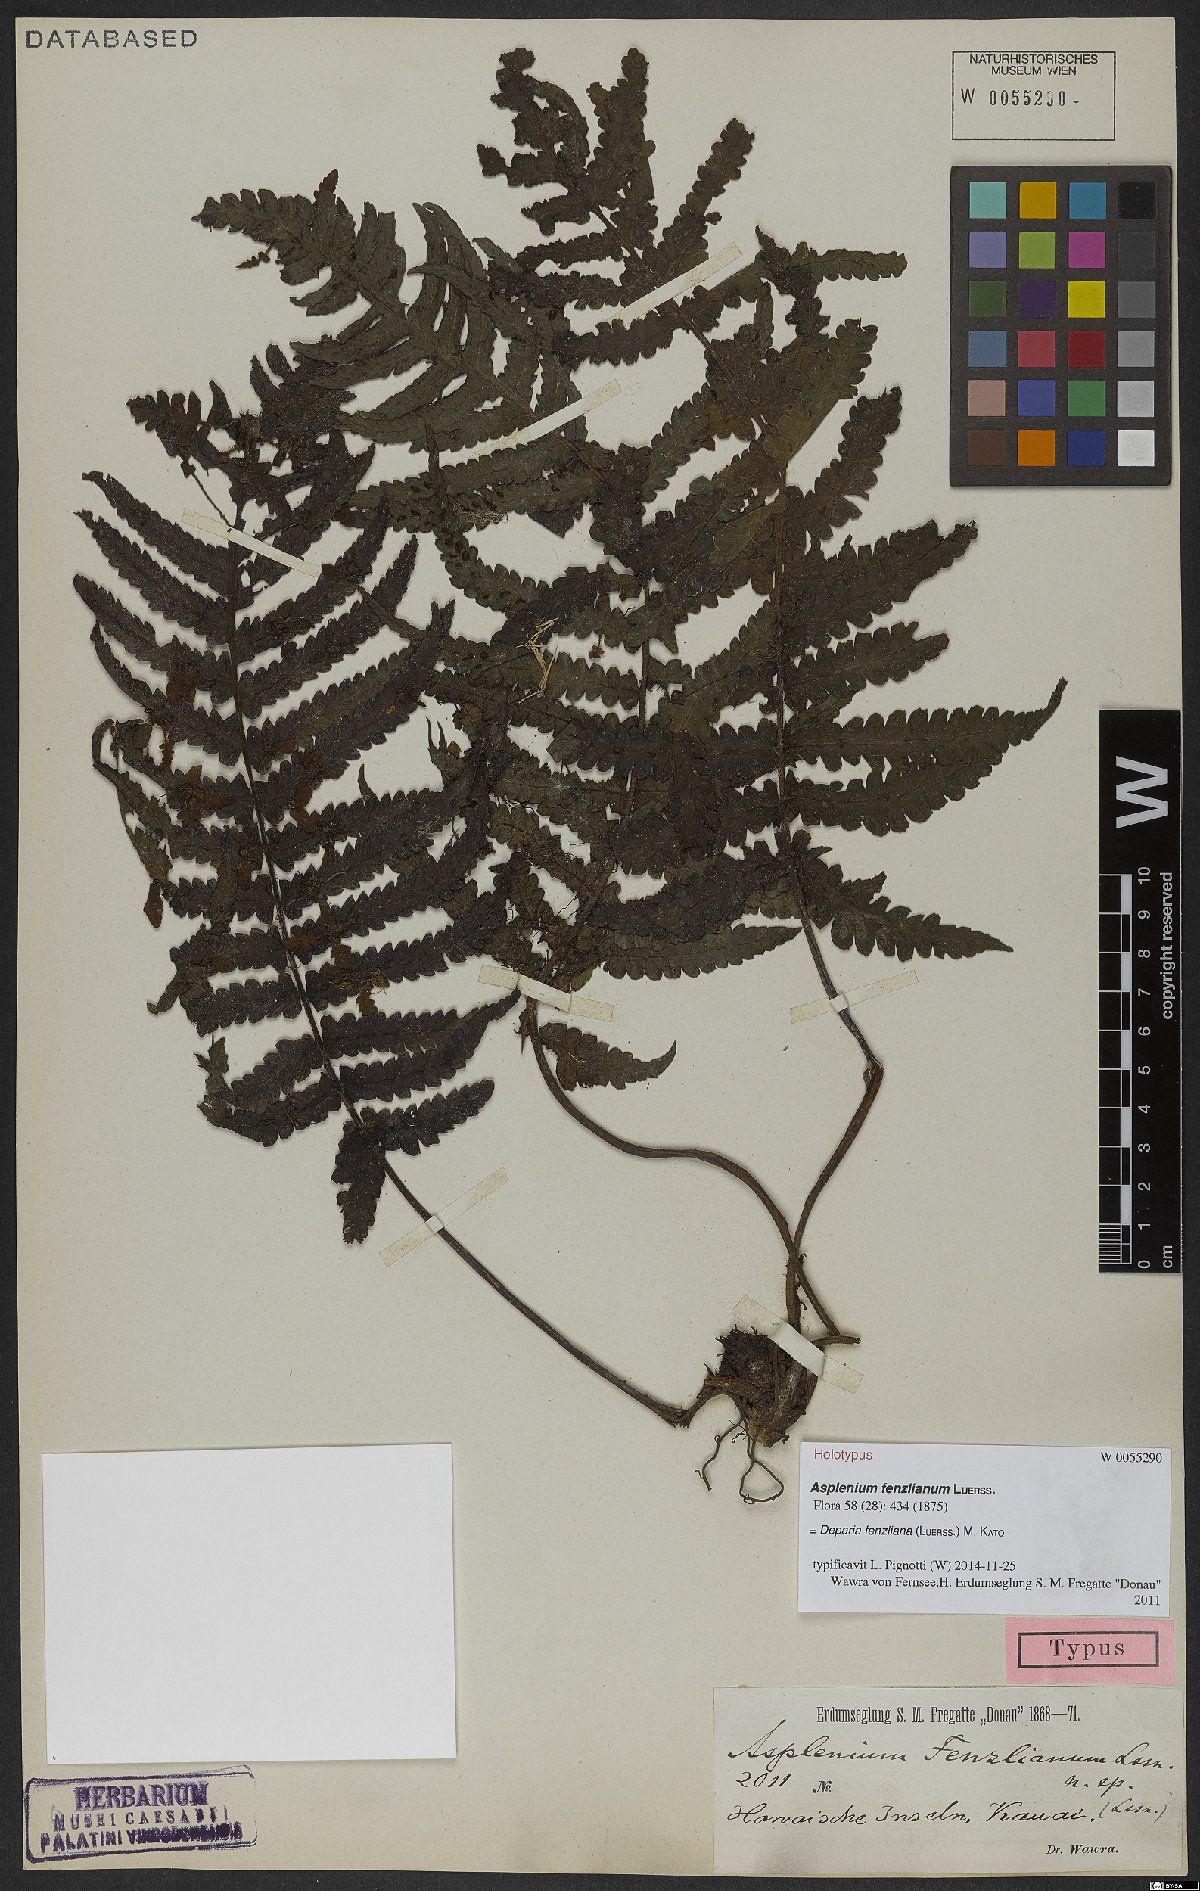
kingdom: Plantae
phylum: Tracheophyta
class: Polypodiopsida
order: Polypodiales
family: Athyriaceae
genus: Deparia
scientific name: Deparia fenzliana
